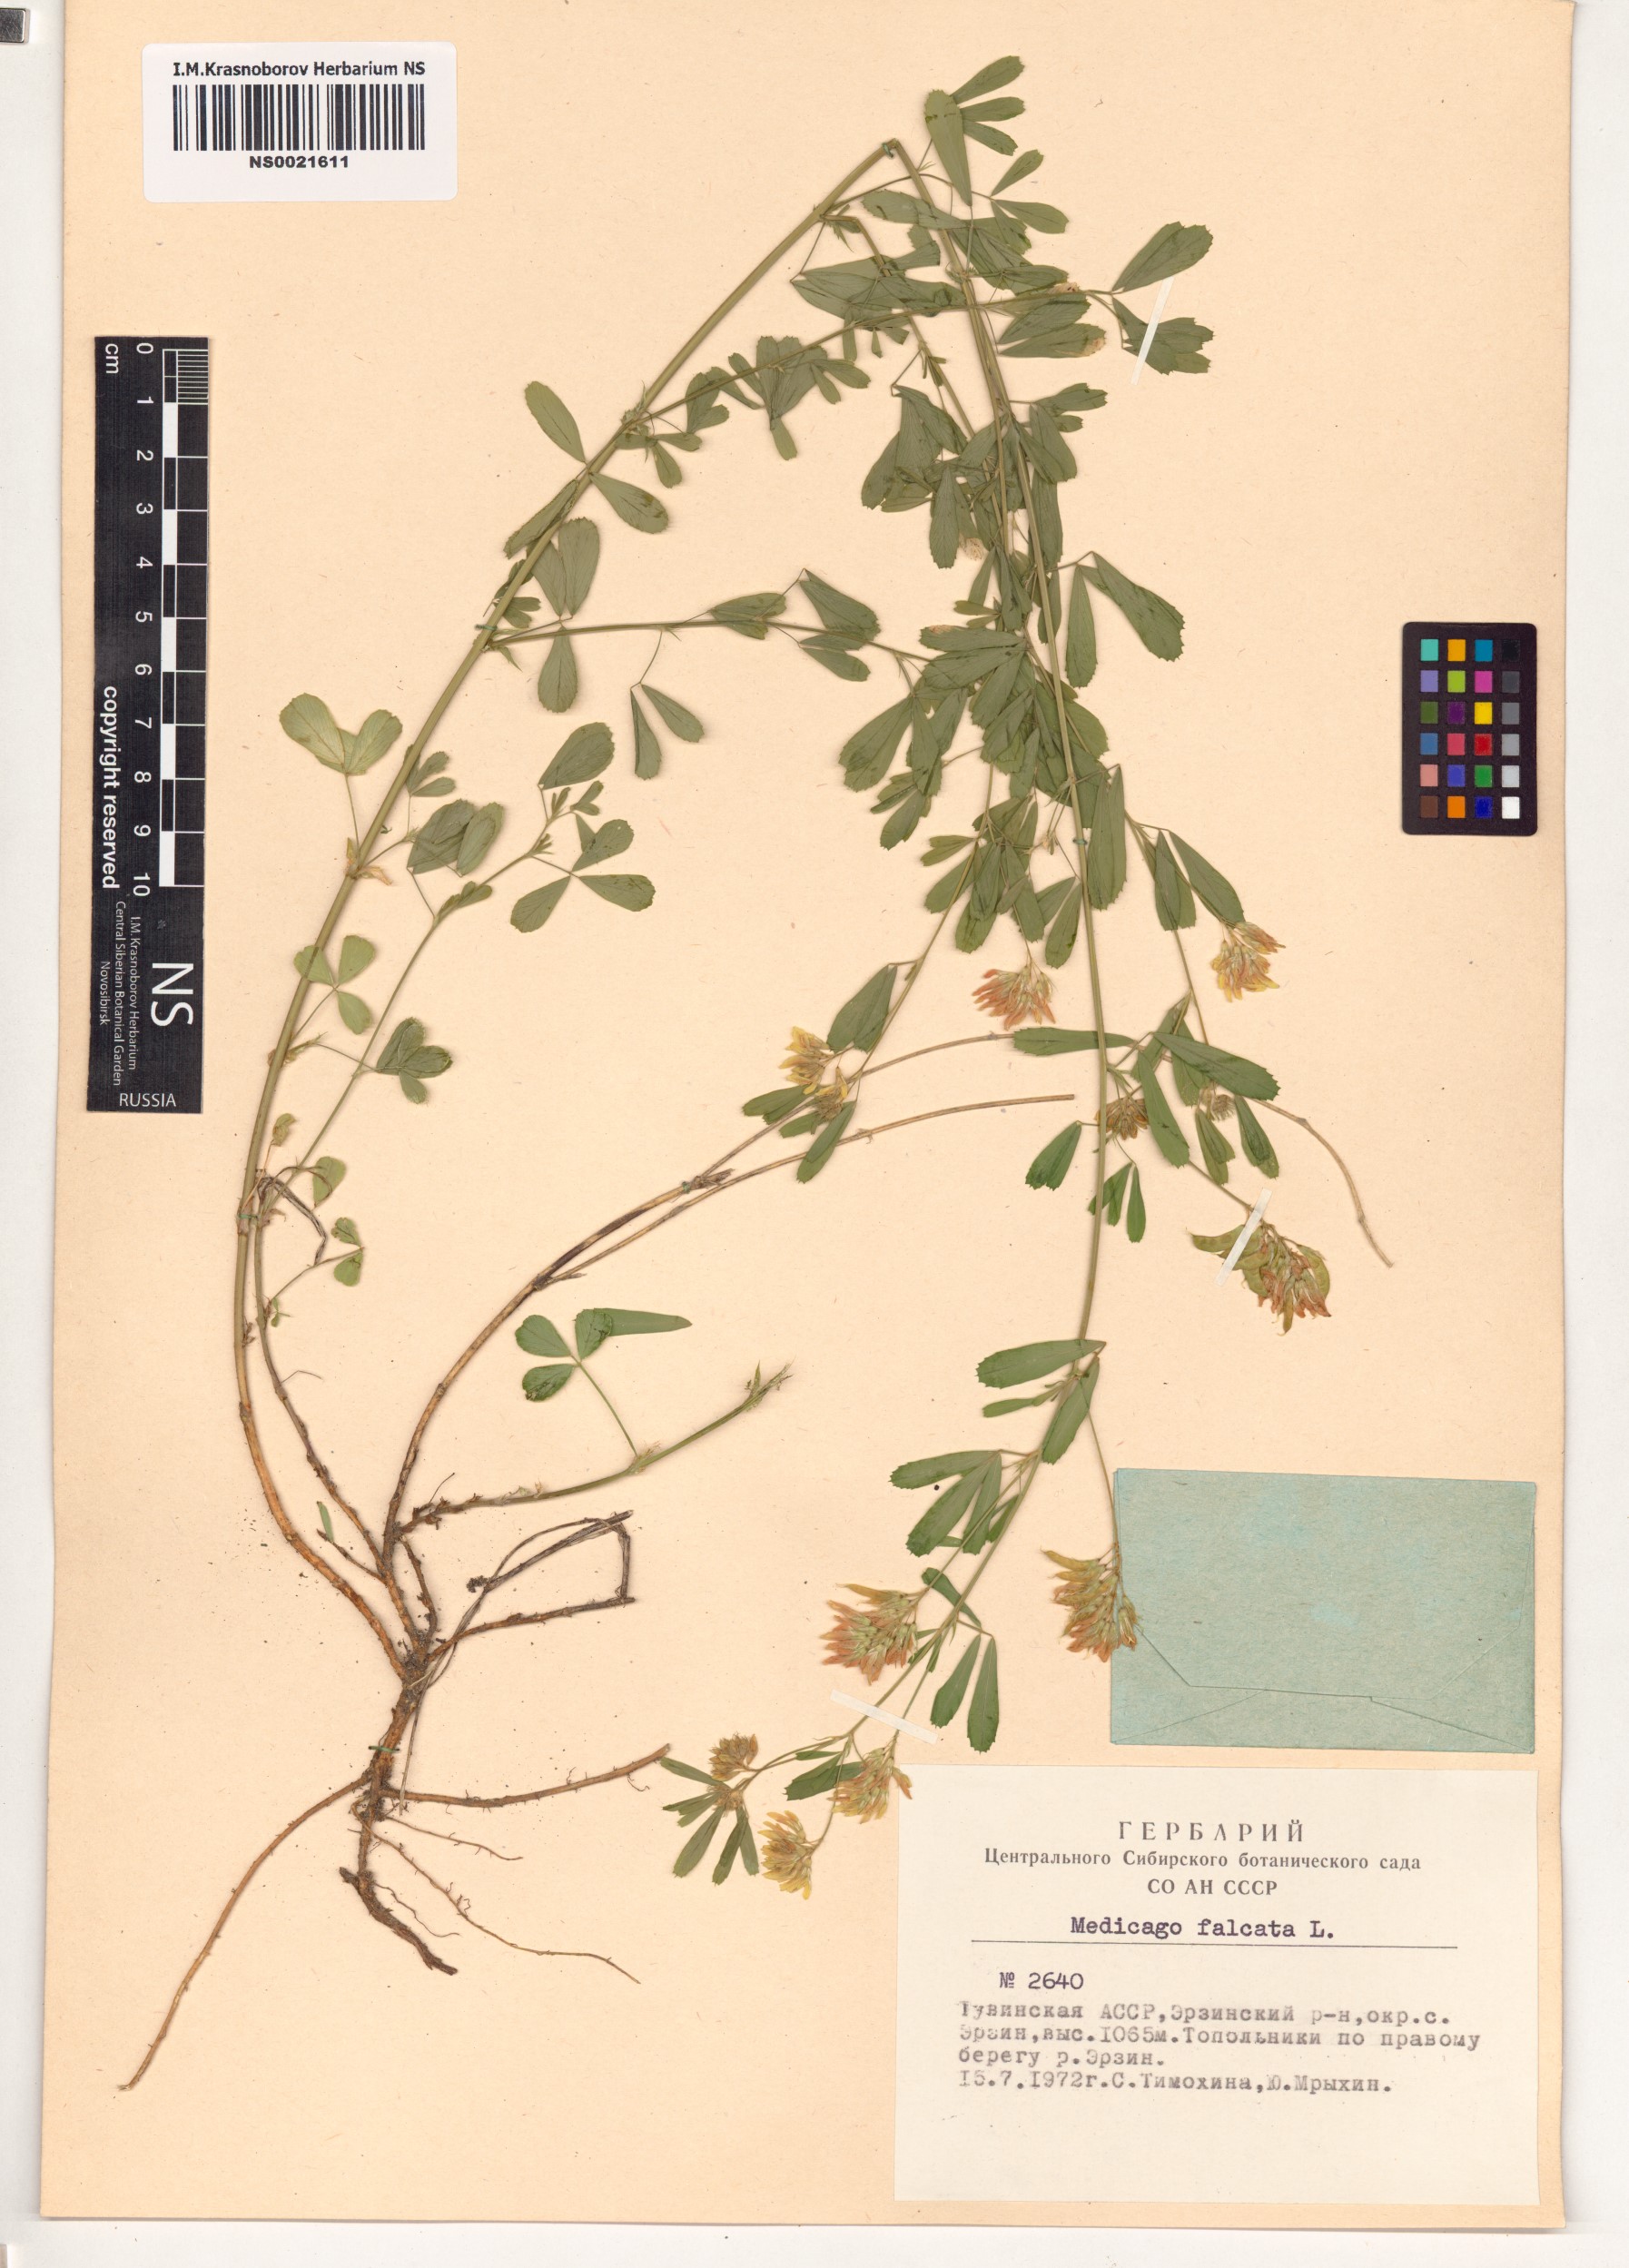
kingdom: Plantae
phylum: Tracheophyta
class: Magnoliopsida
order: Fabales
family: Fabaceae
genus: Medicago
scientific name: Medicago falcata
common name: Sickle medick
